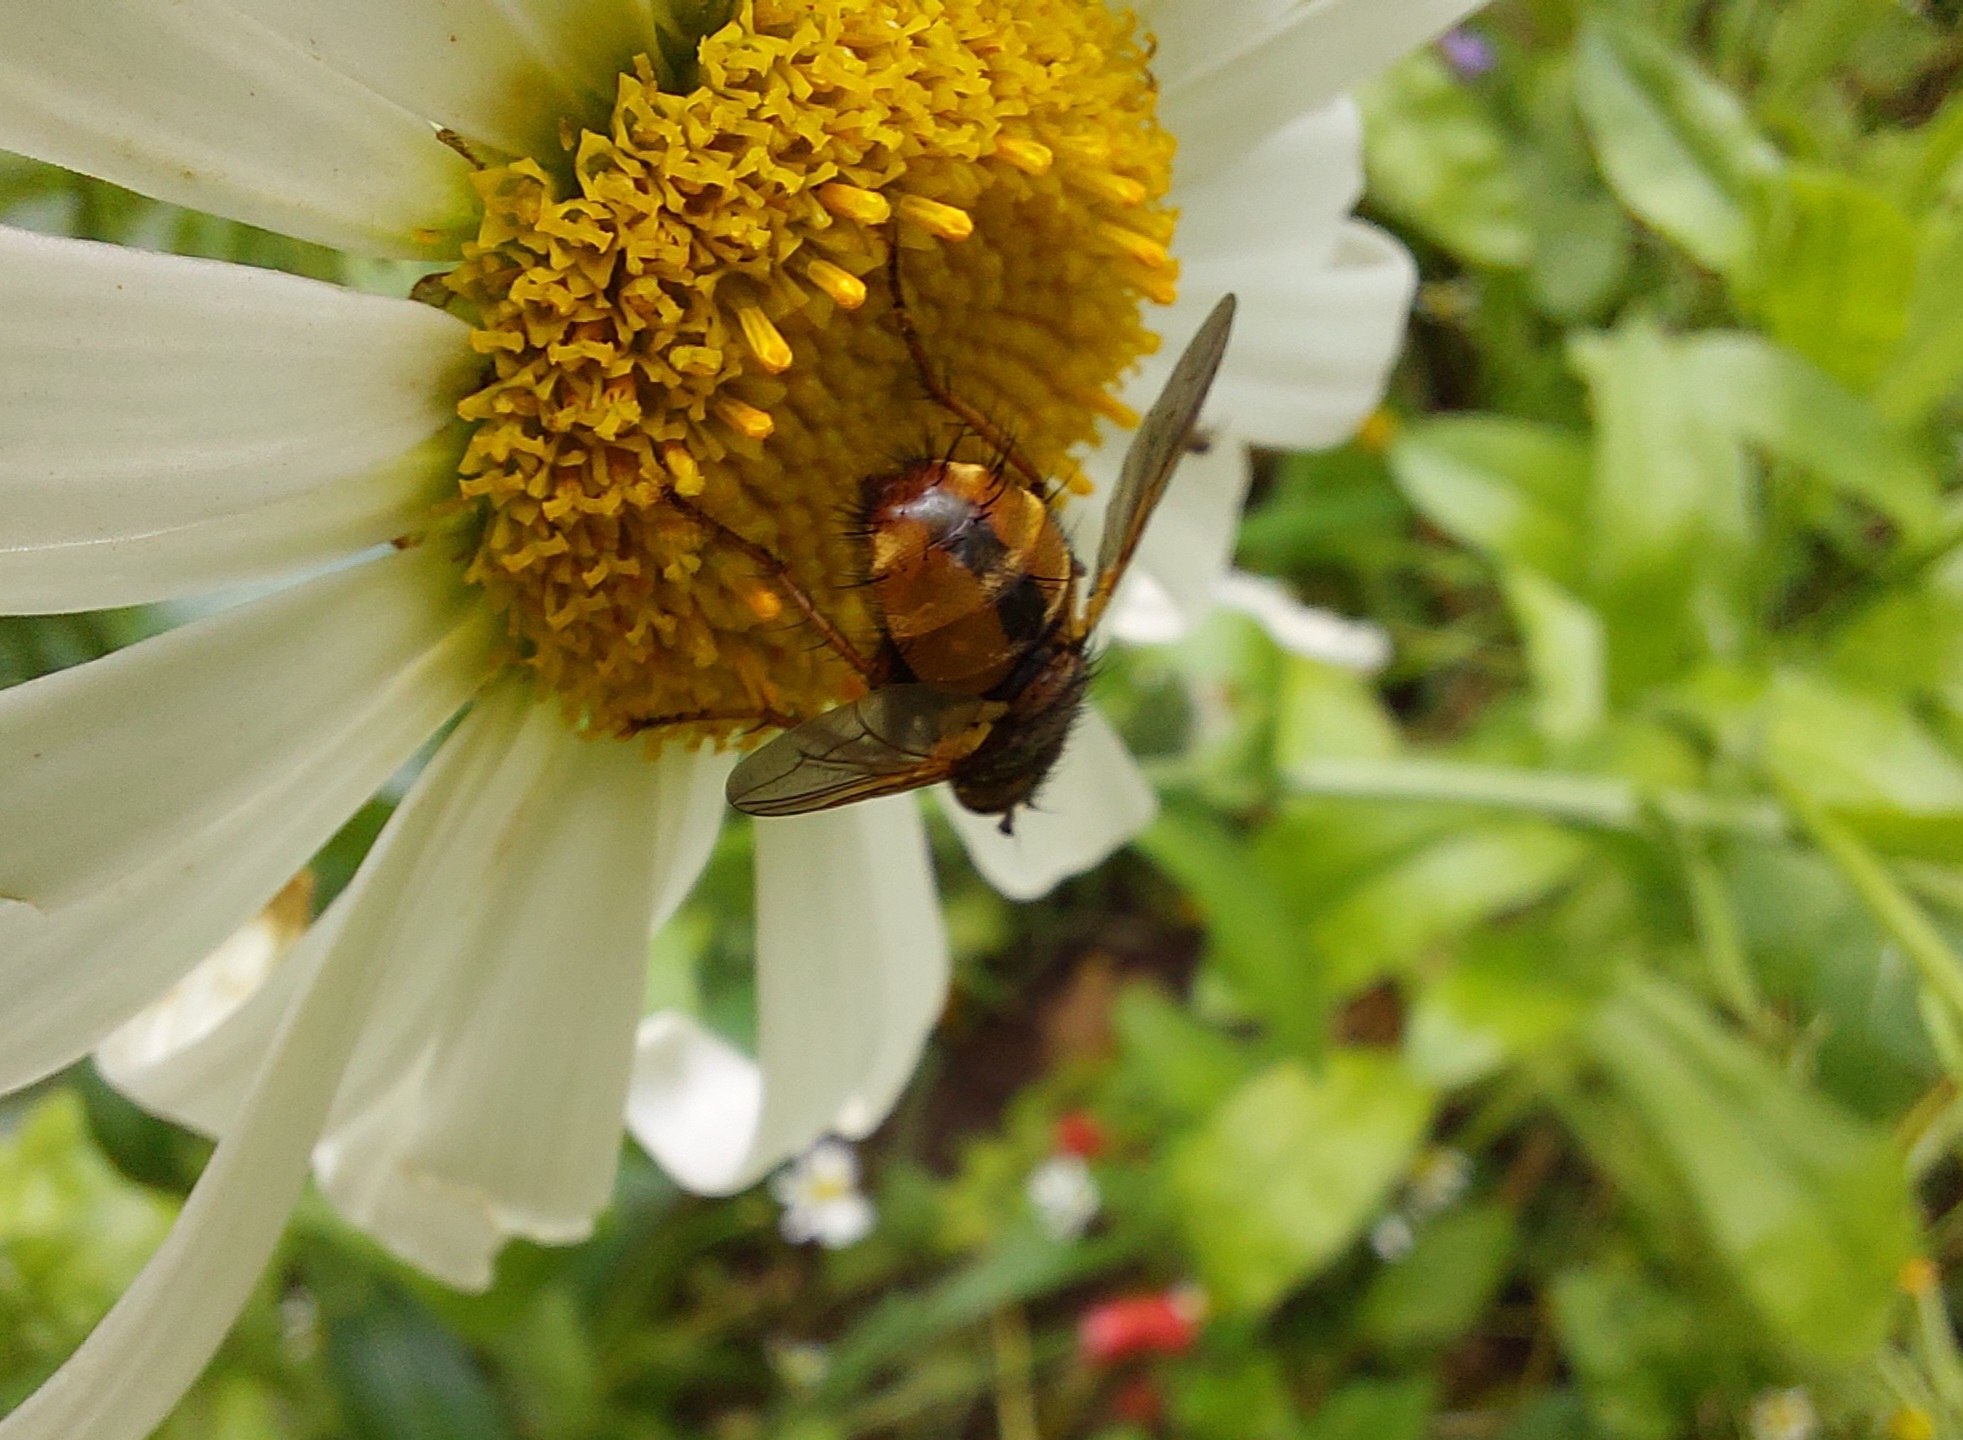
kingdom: Animalia
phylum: Arthropoda
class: Insecta
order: Diptera
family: Tachinidae
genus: Tachina
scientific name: Tachina fera
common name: Mellemfluen oskar
